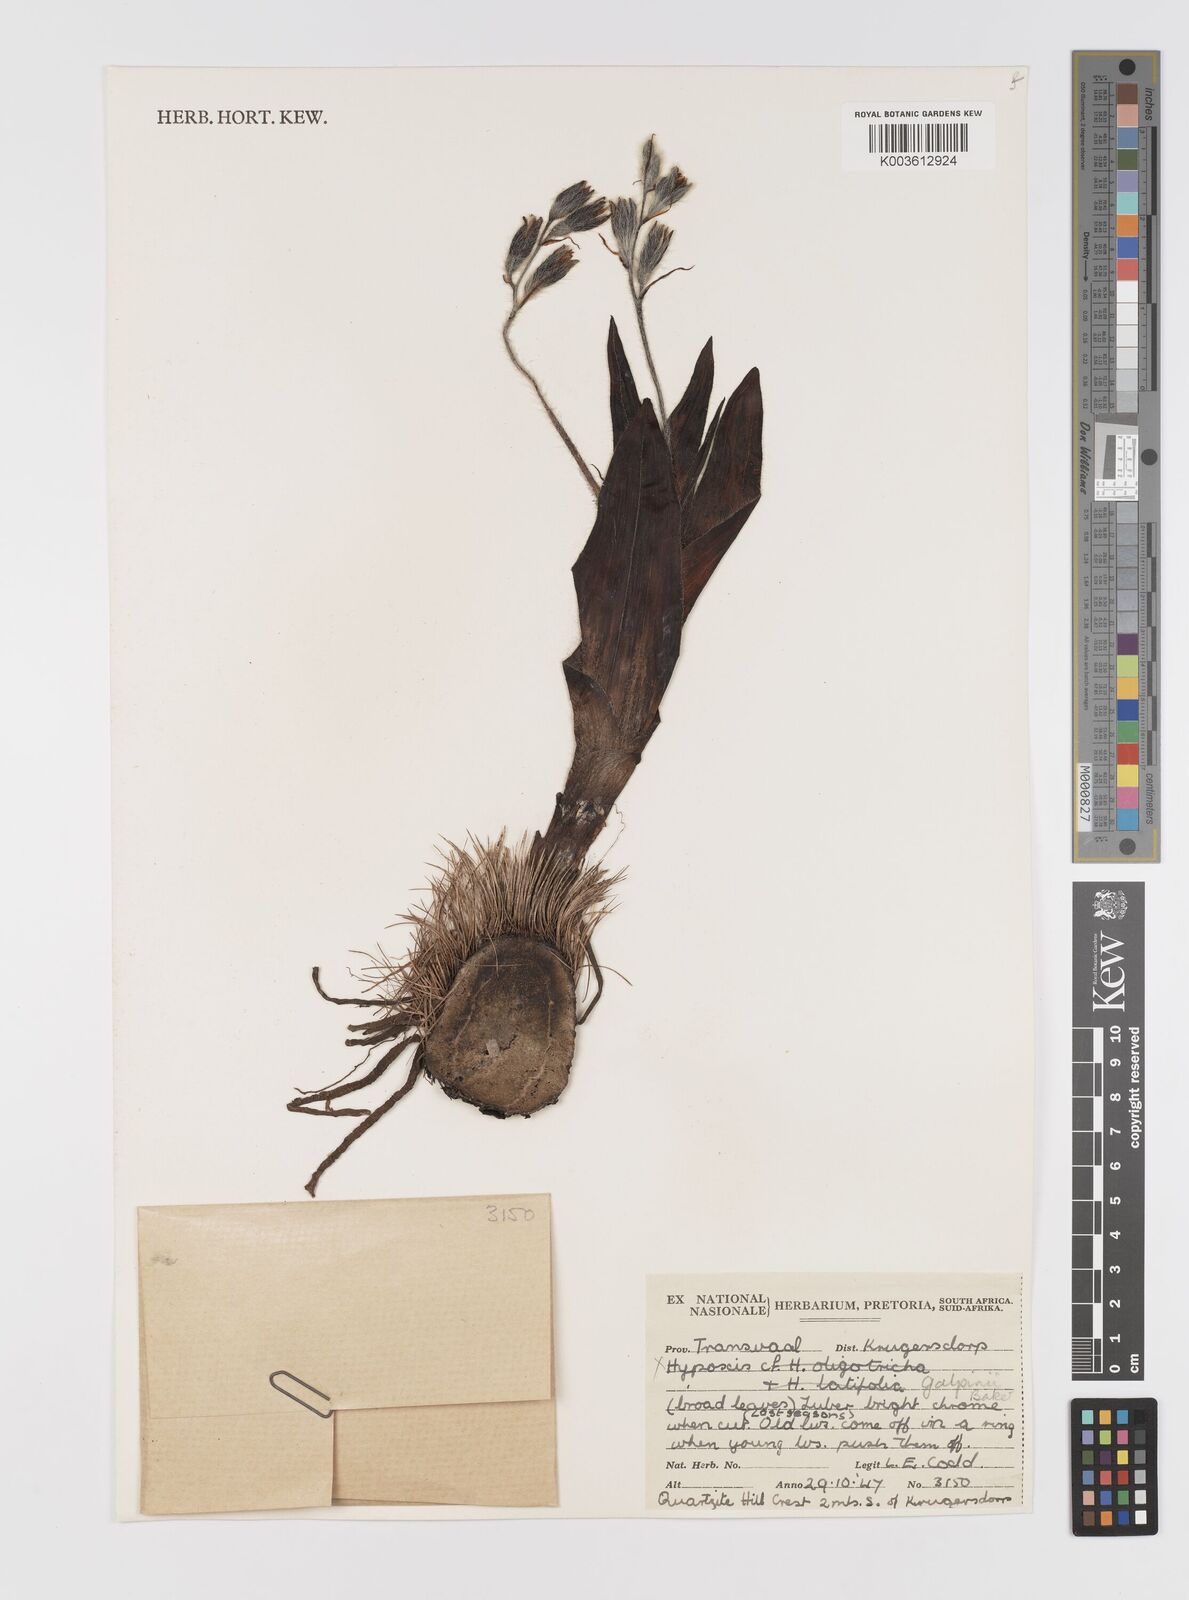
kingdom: Plantae
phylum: Tracheophyta
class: Liliopsida
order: Asparagales
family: Hypoxidaceae
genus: Hypoxis
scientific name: Hypoxis galpinii
